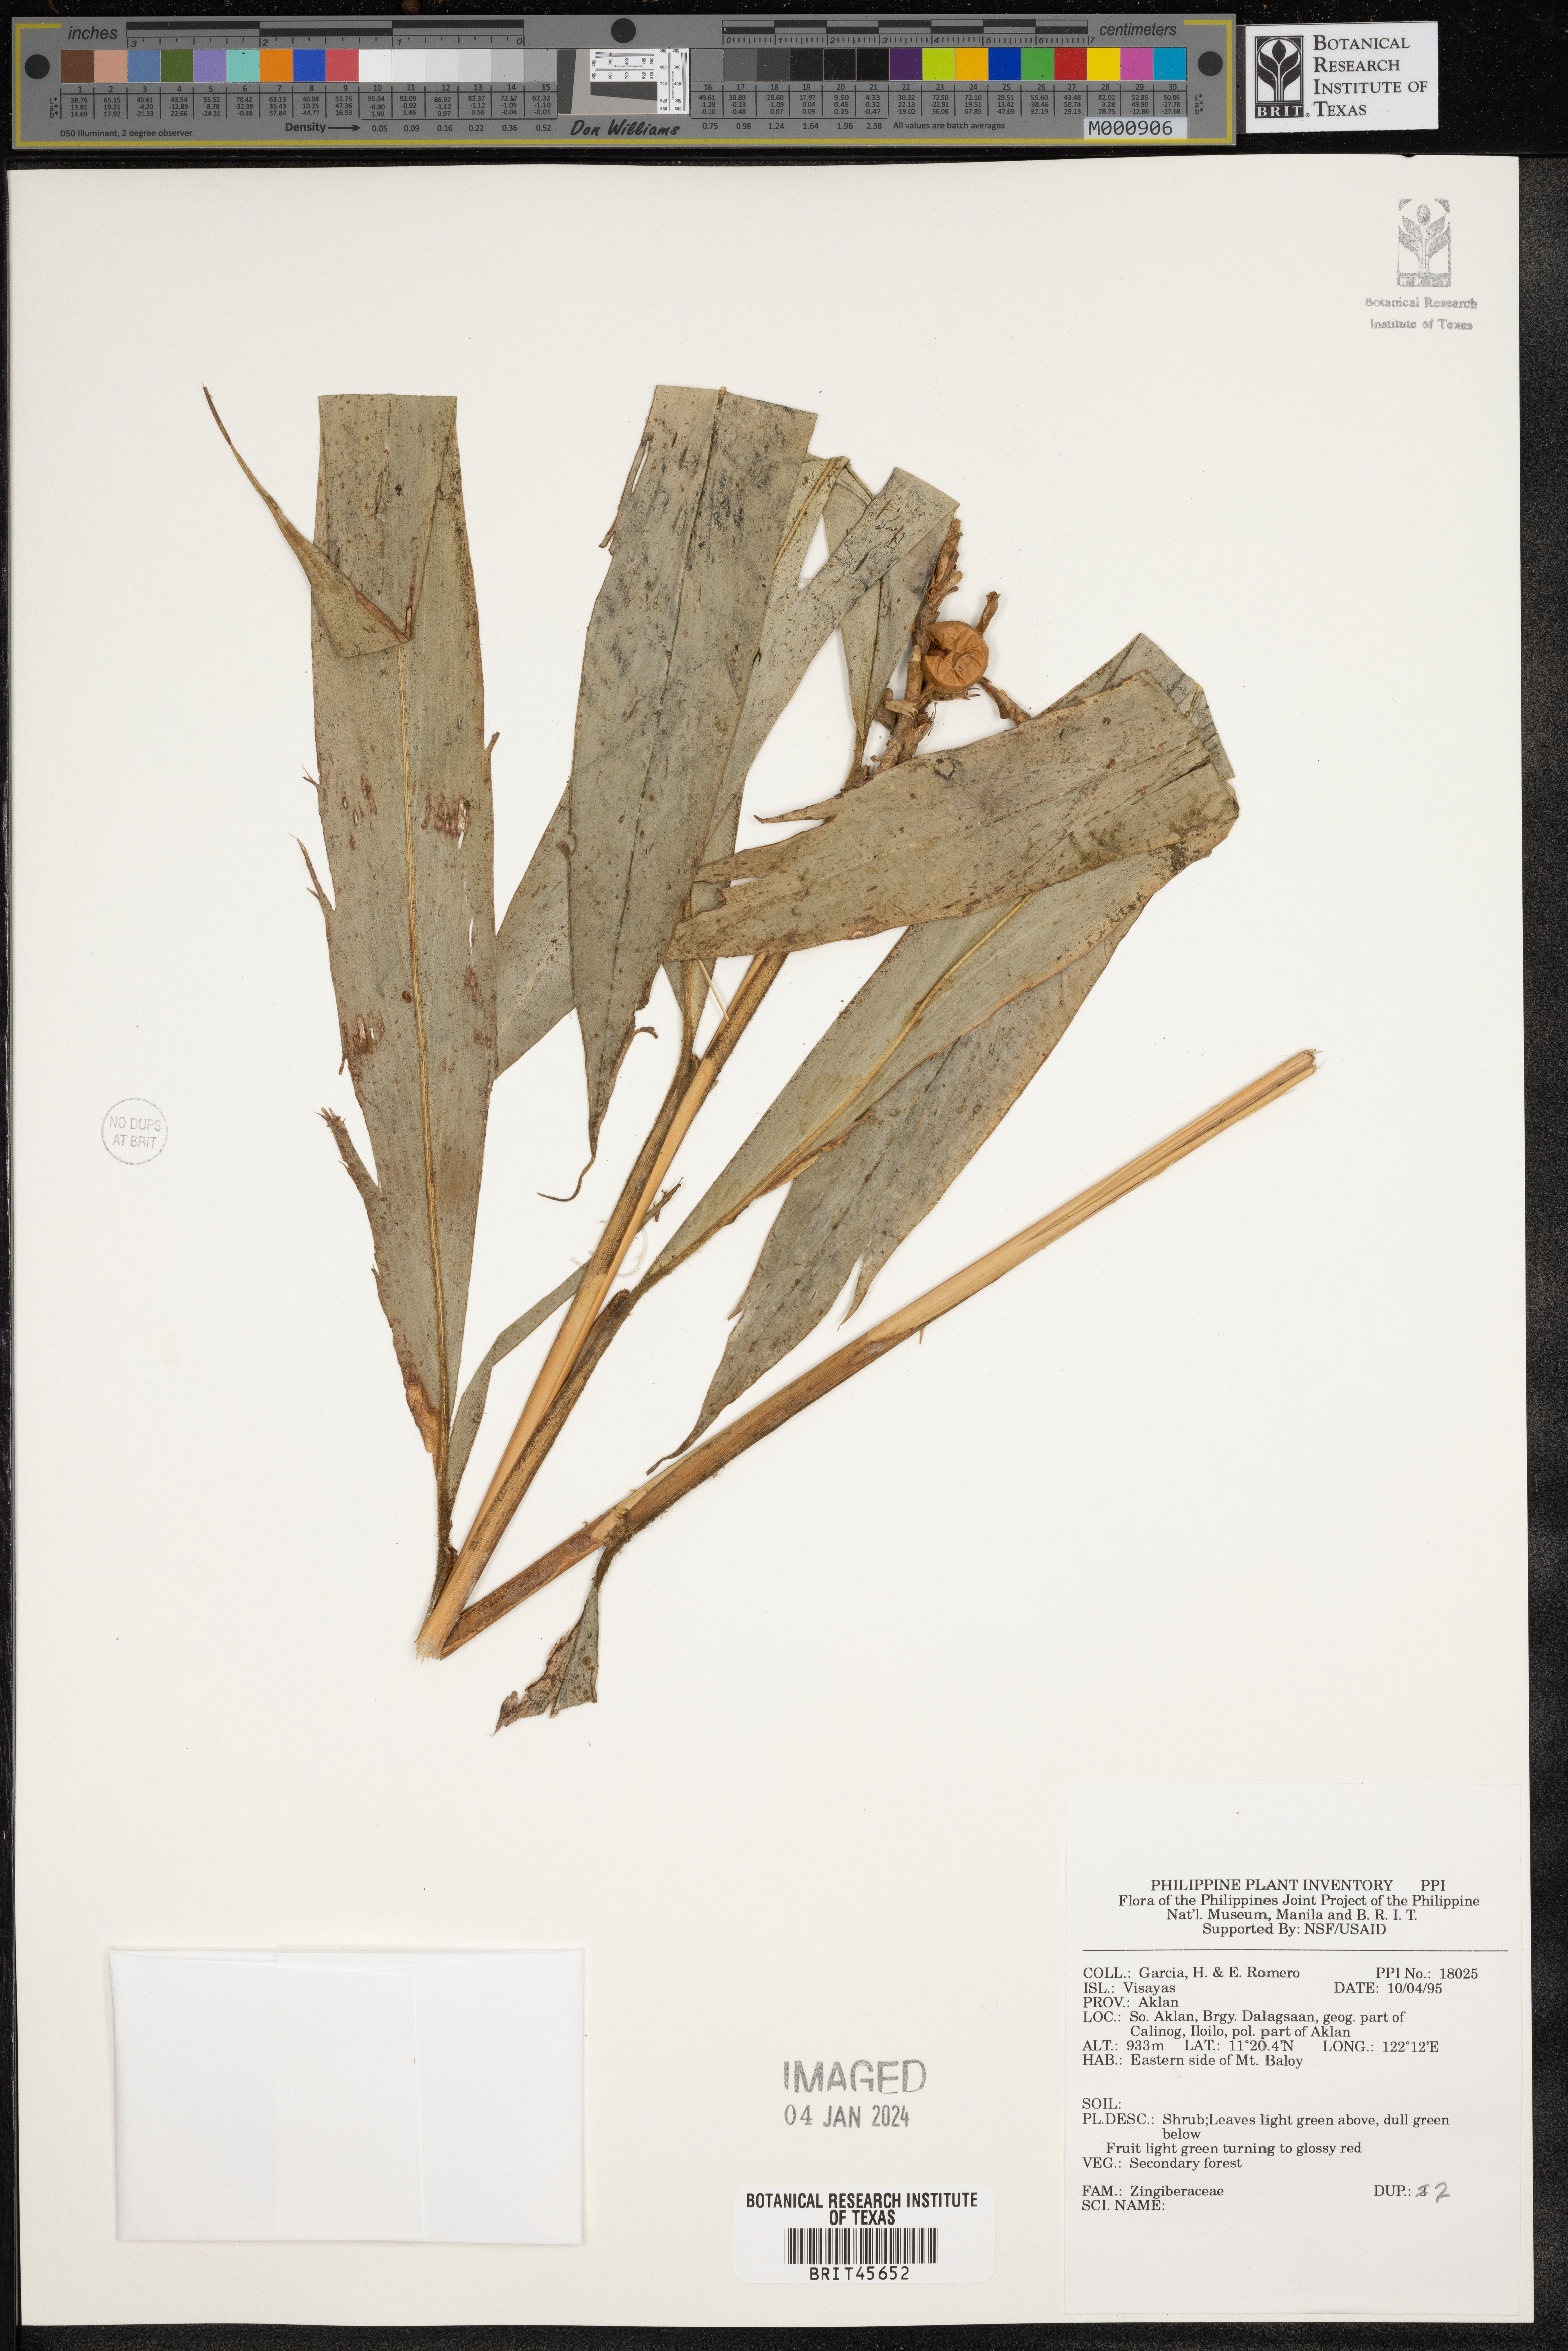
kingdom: Plantae
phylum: Tracheophyta
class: Liliopsida
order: Zingiberales
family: Zingiberaceae
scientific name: Zingiberaceae
